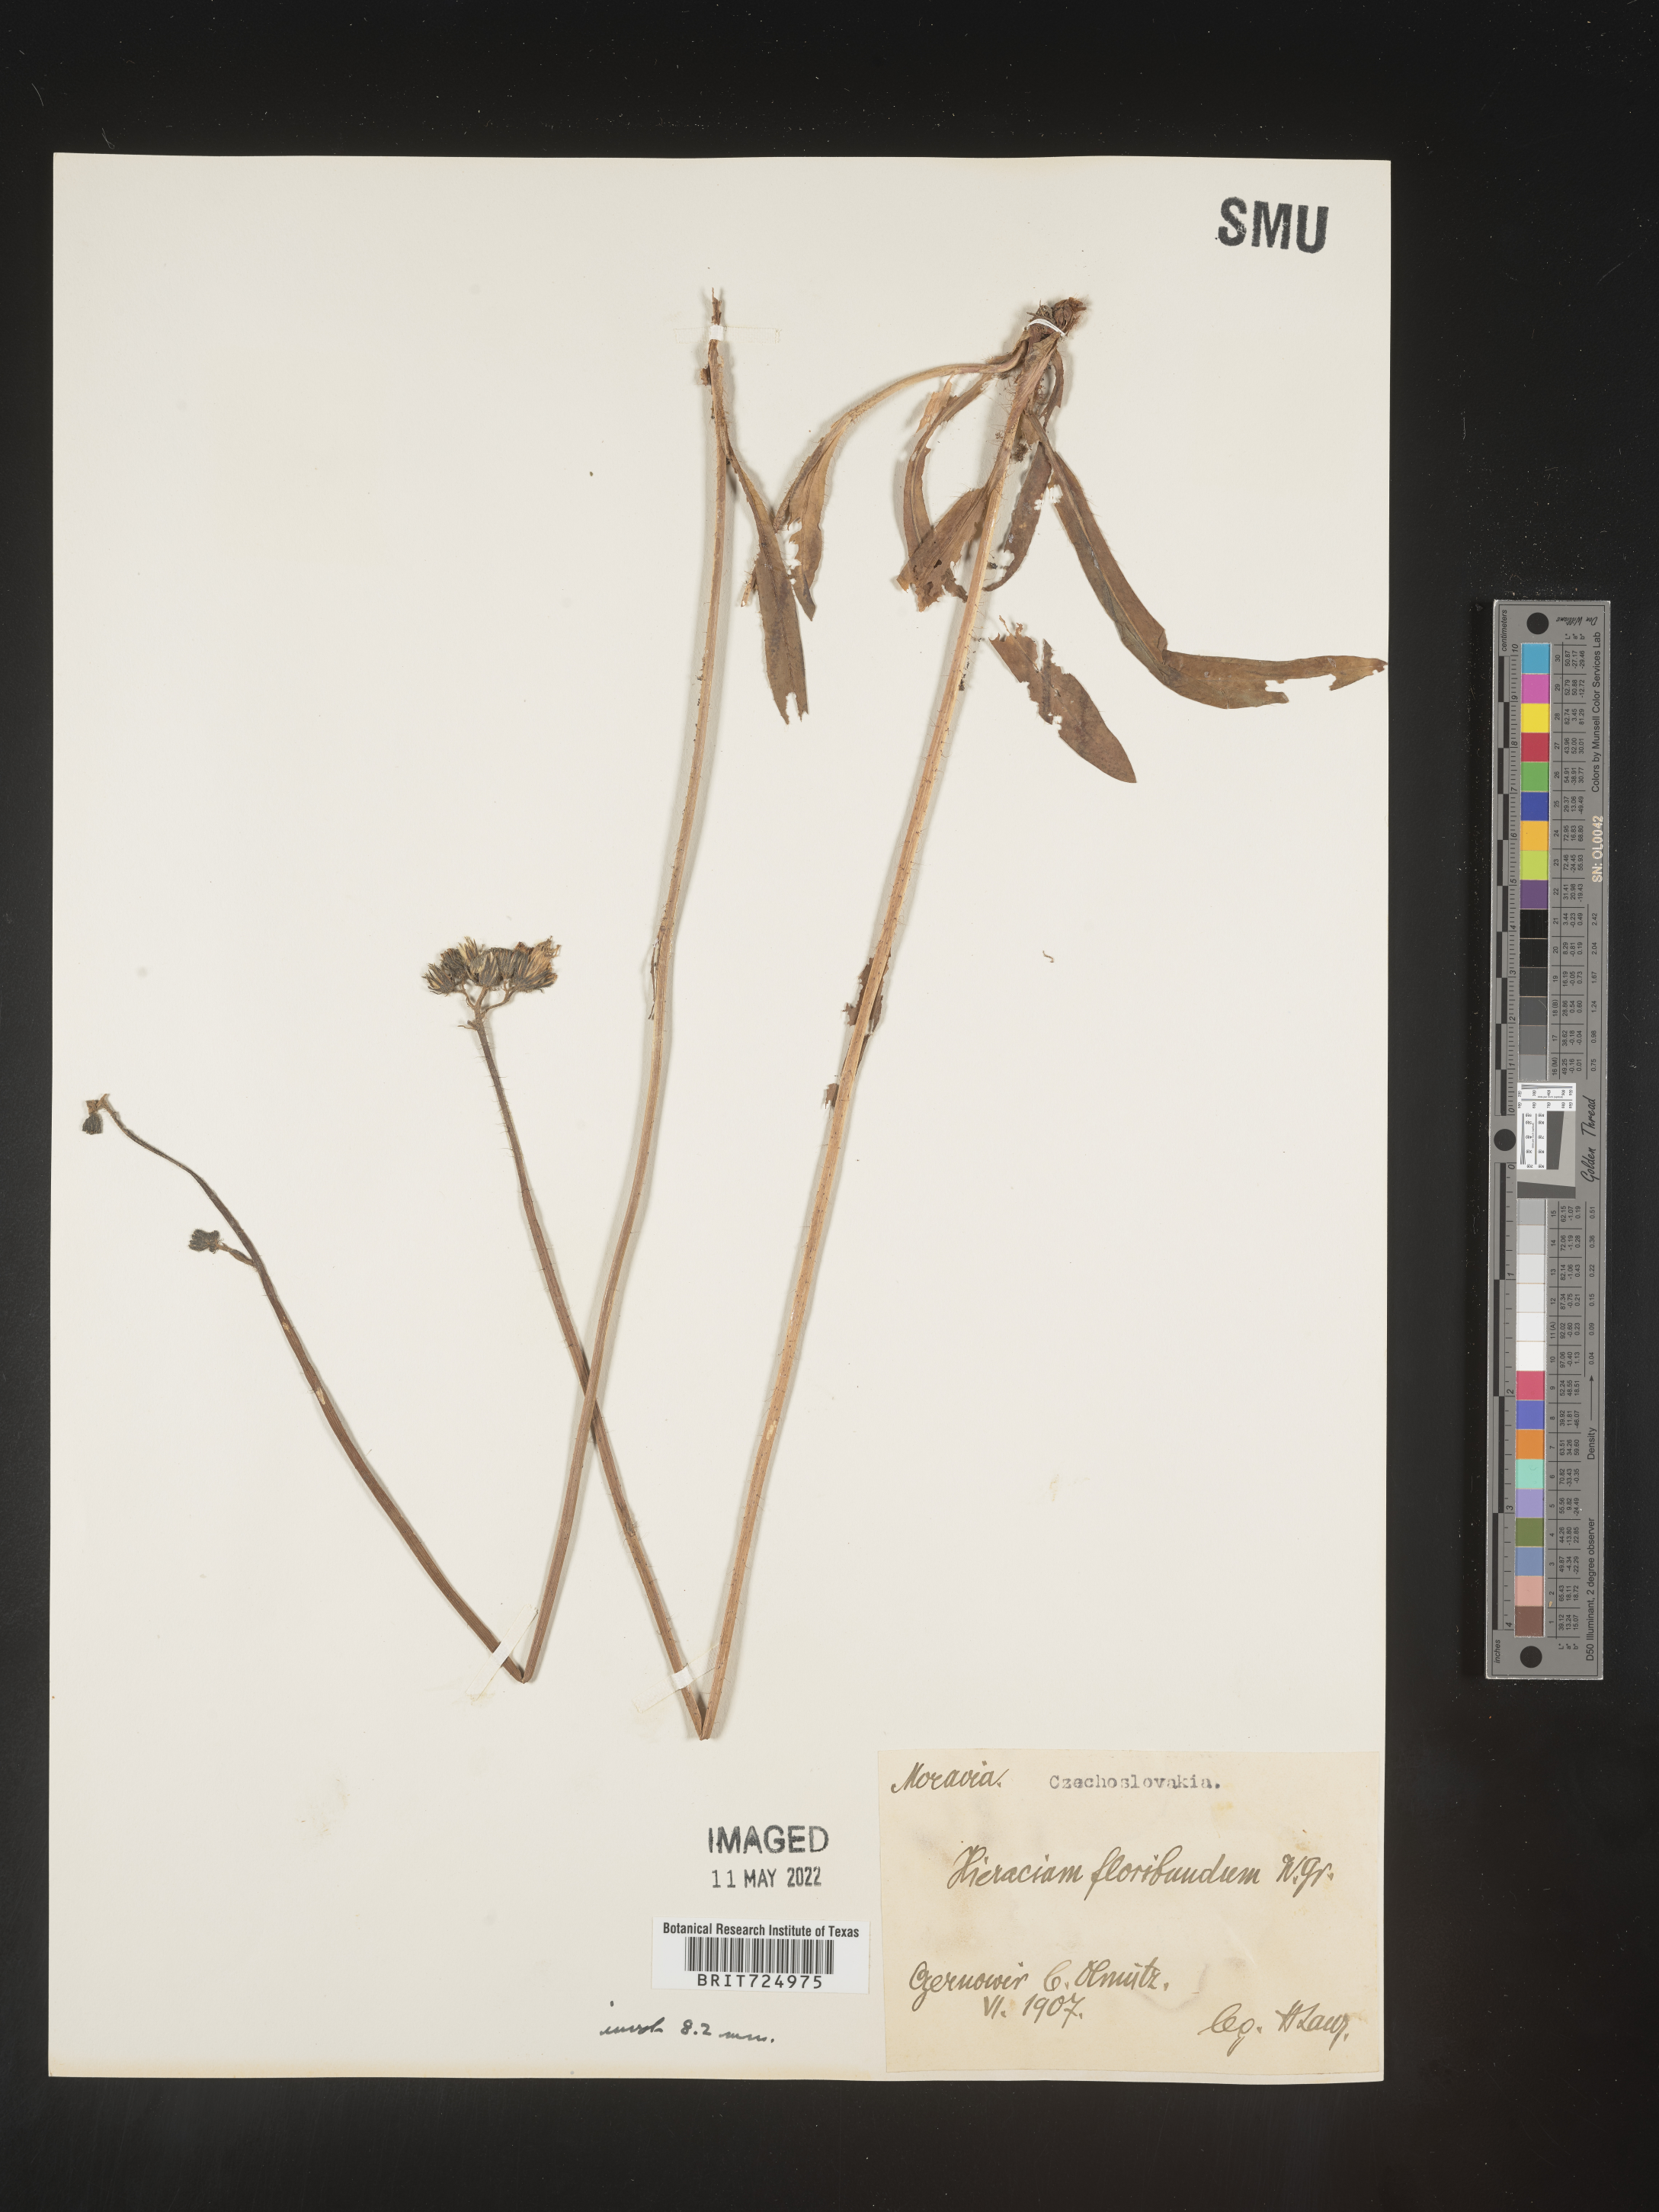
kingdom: Plantae
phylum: Tracheophyta
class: Magnoliopsida
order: Asterales
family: Asteraceae
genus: Hieracium
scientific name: Hieracium
